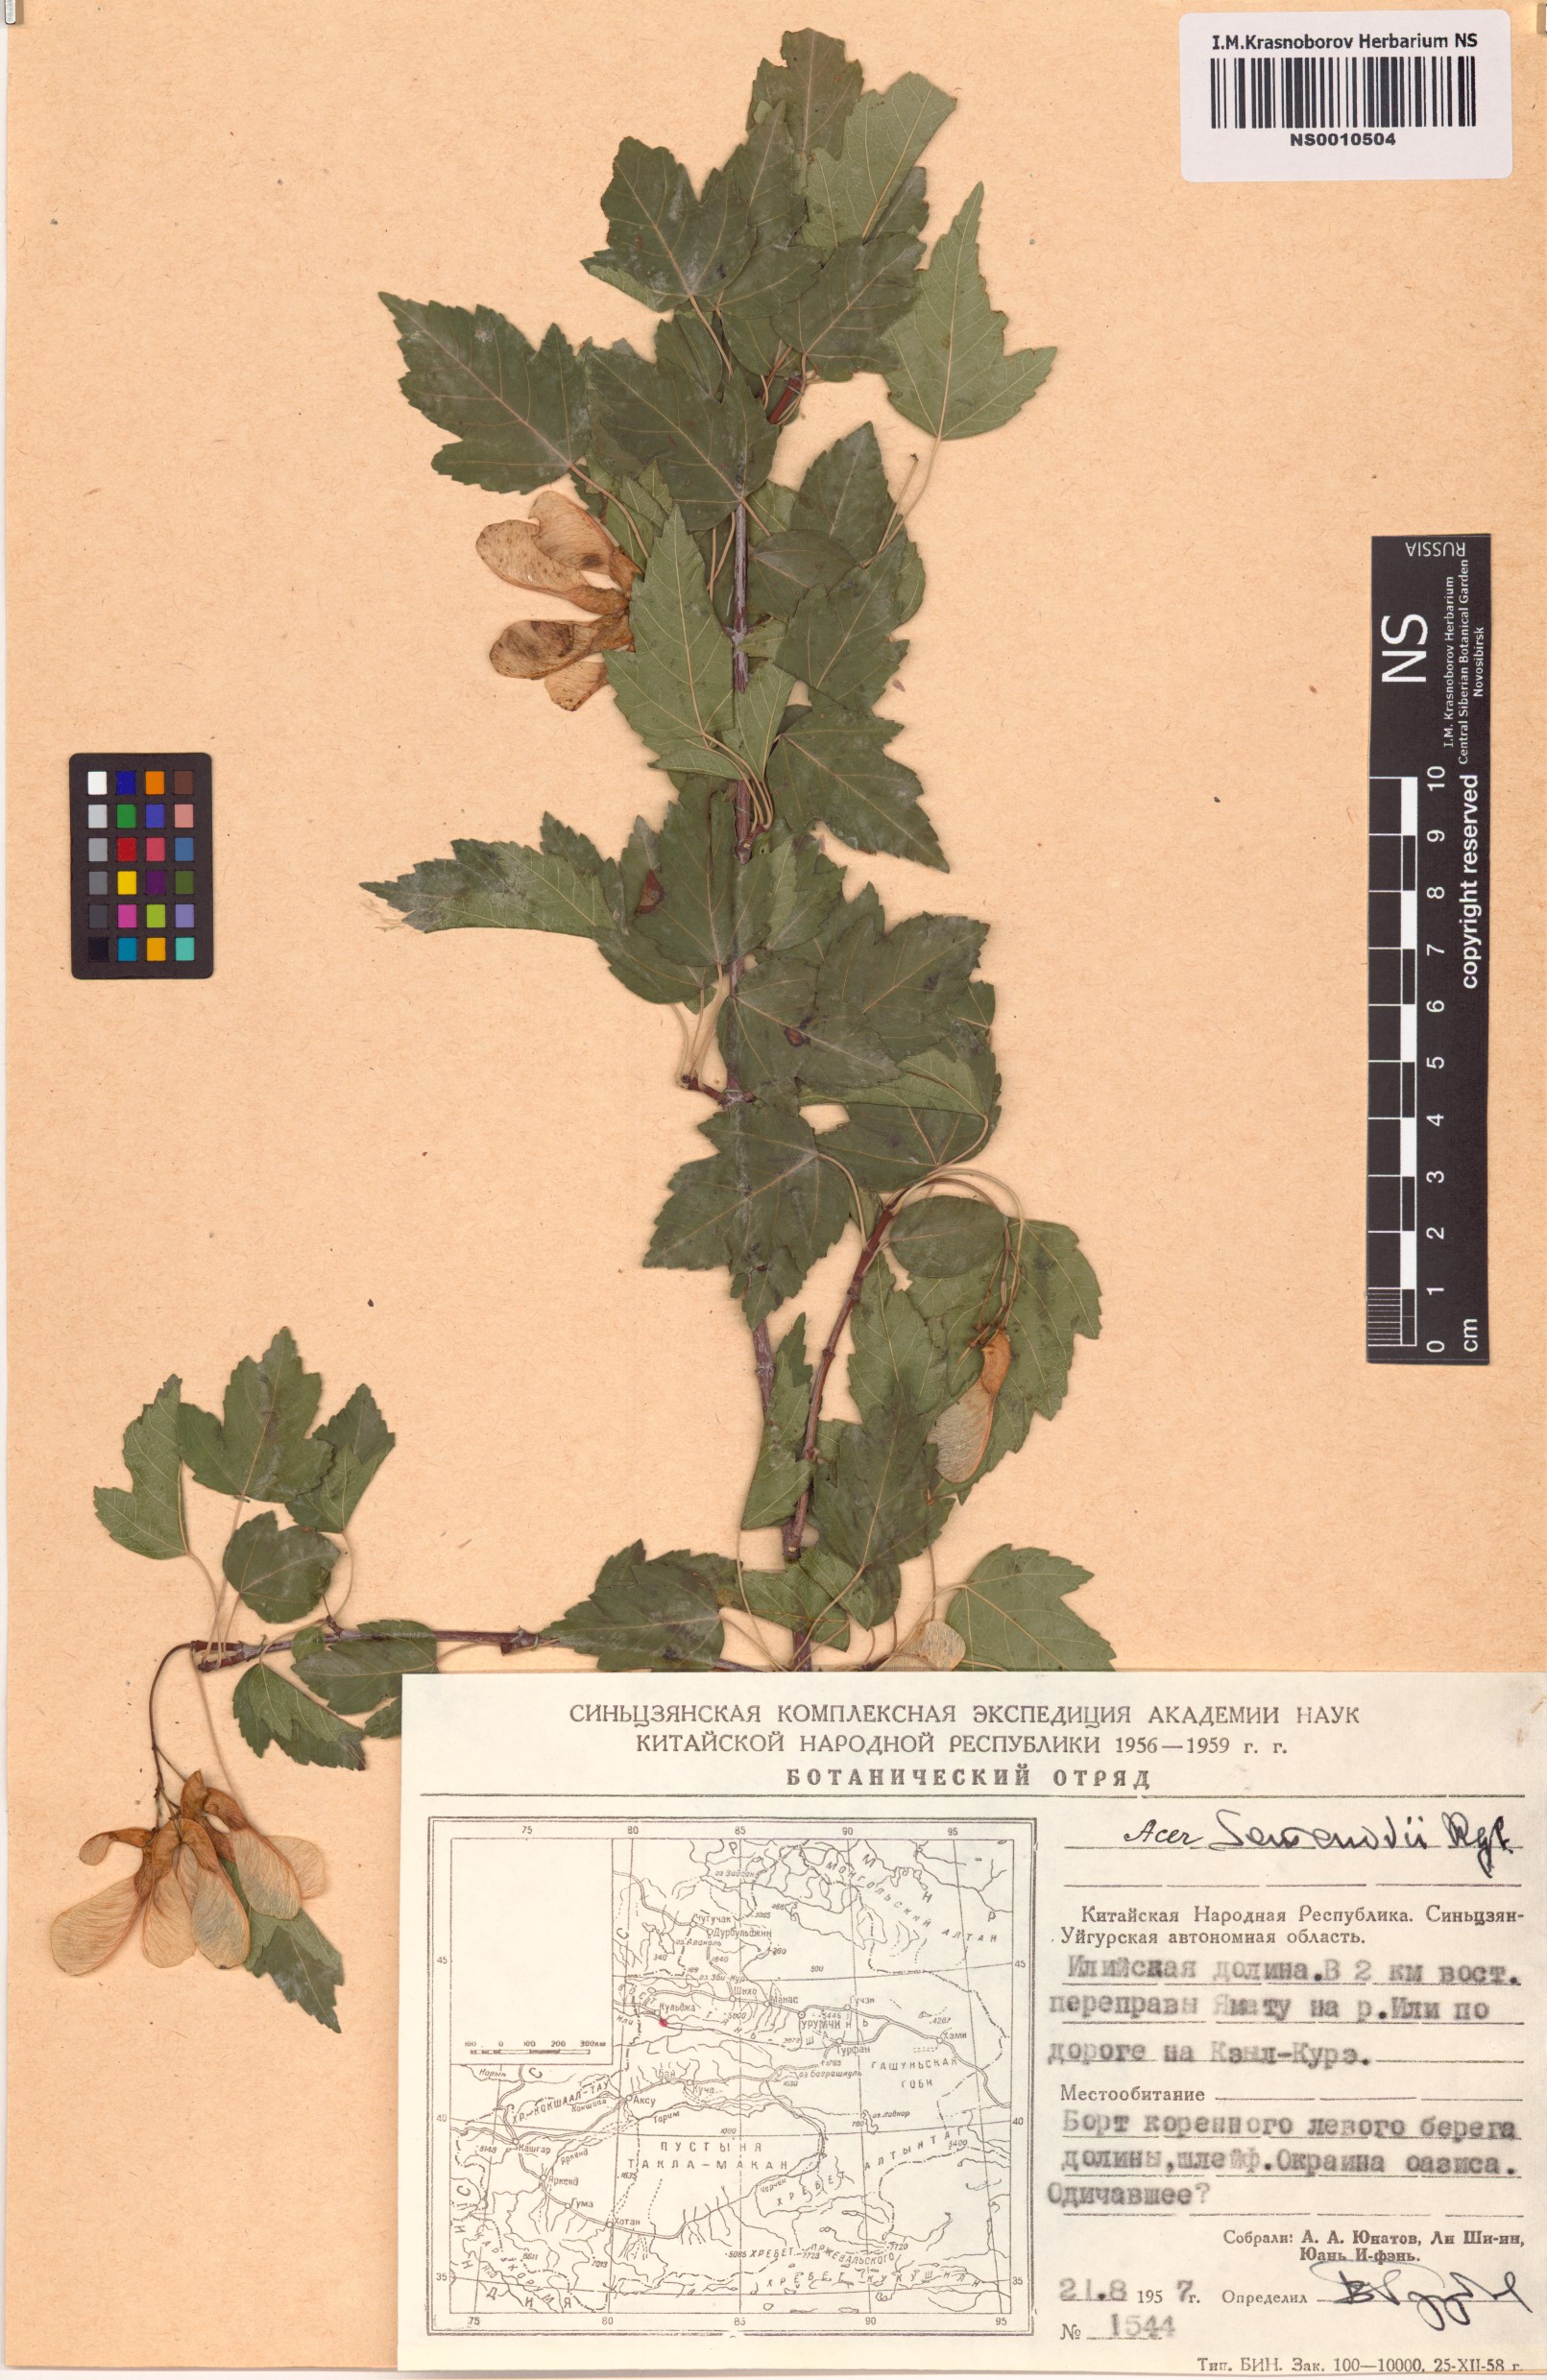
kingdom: Plantae
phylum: Tracheophyta
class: Magnoliopsida
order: Sapindales
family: Sapindaceae
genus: Acer
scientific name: Acer tataricum
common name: Tartar maple
